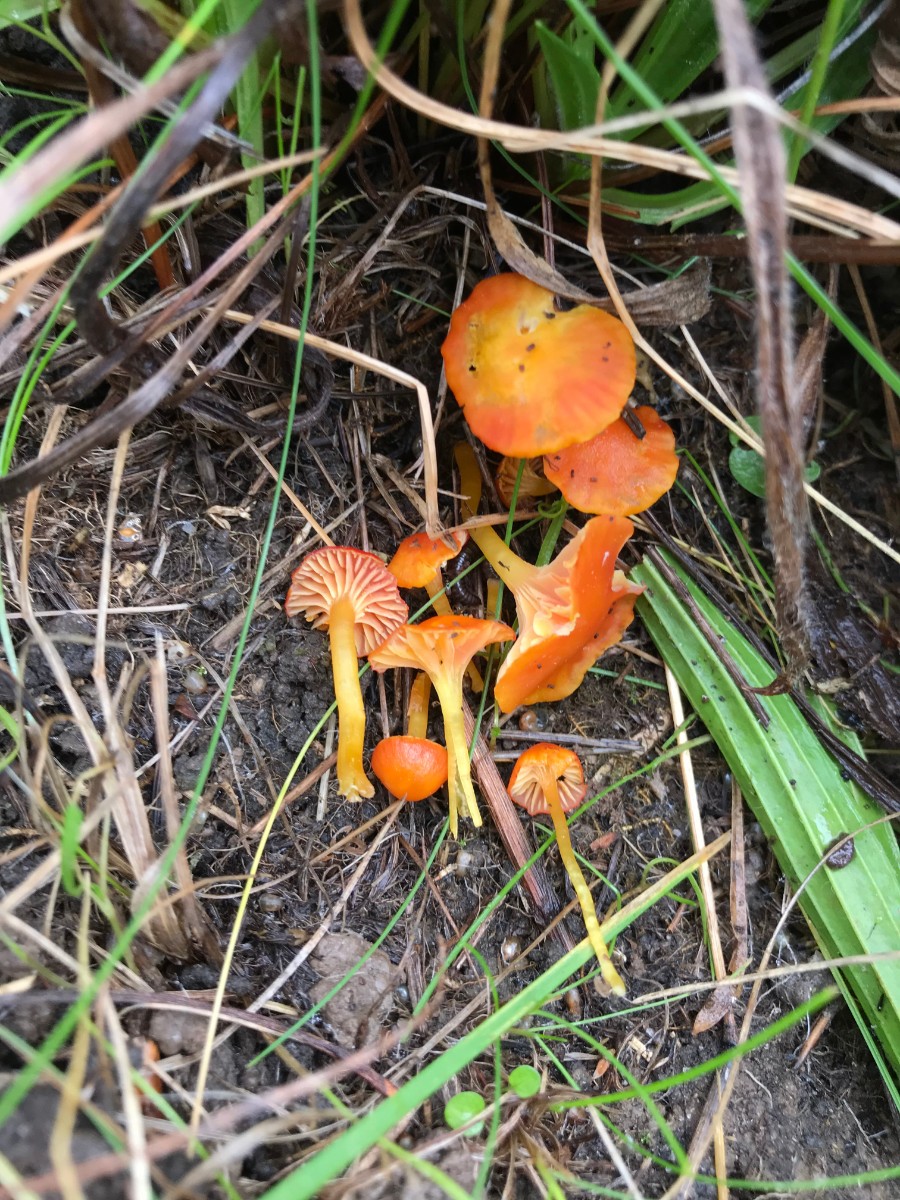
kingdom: Fungi
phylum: Basidiomycota
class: Agaricomycetes
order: Agaricales
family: Hygrophoraceae
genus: Hygrocybe
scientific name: Hygrocybe insipida
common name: liden vokshat
